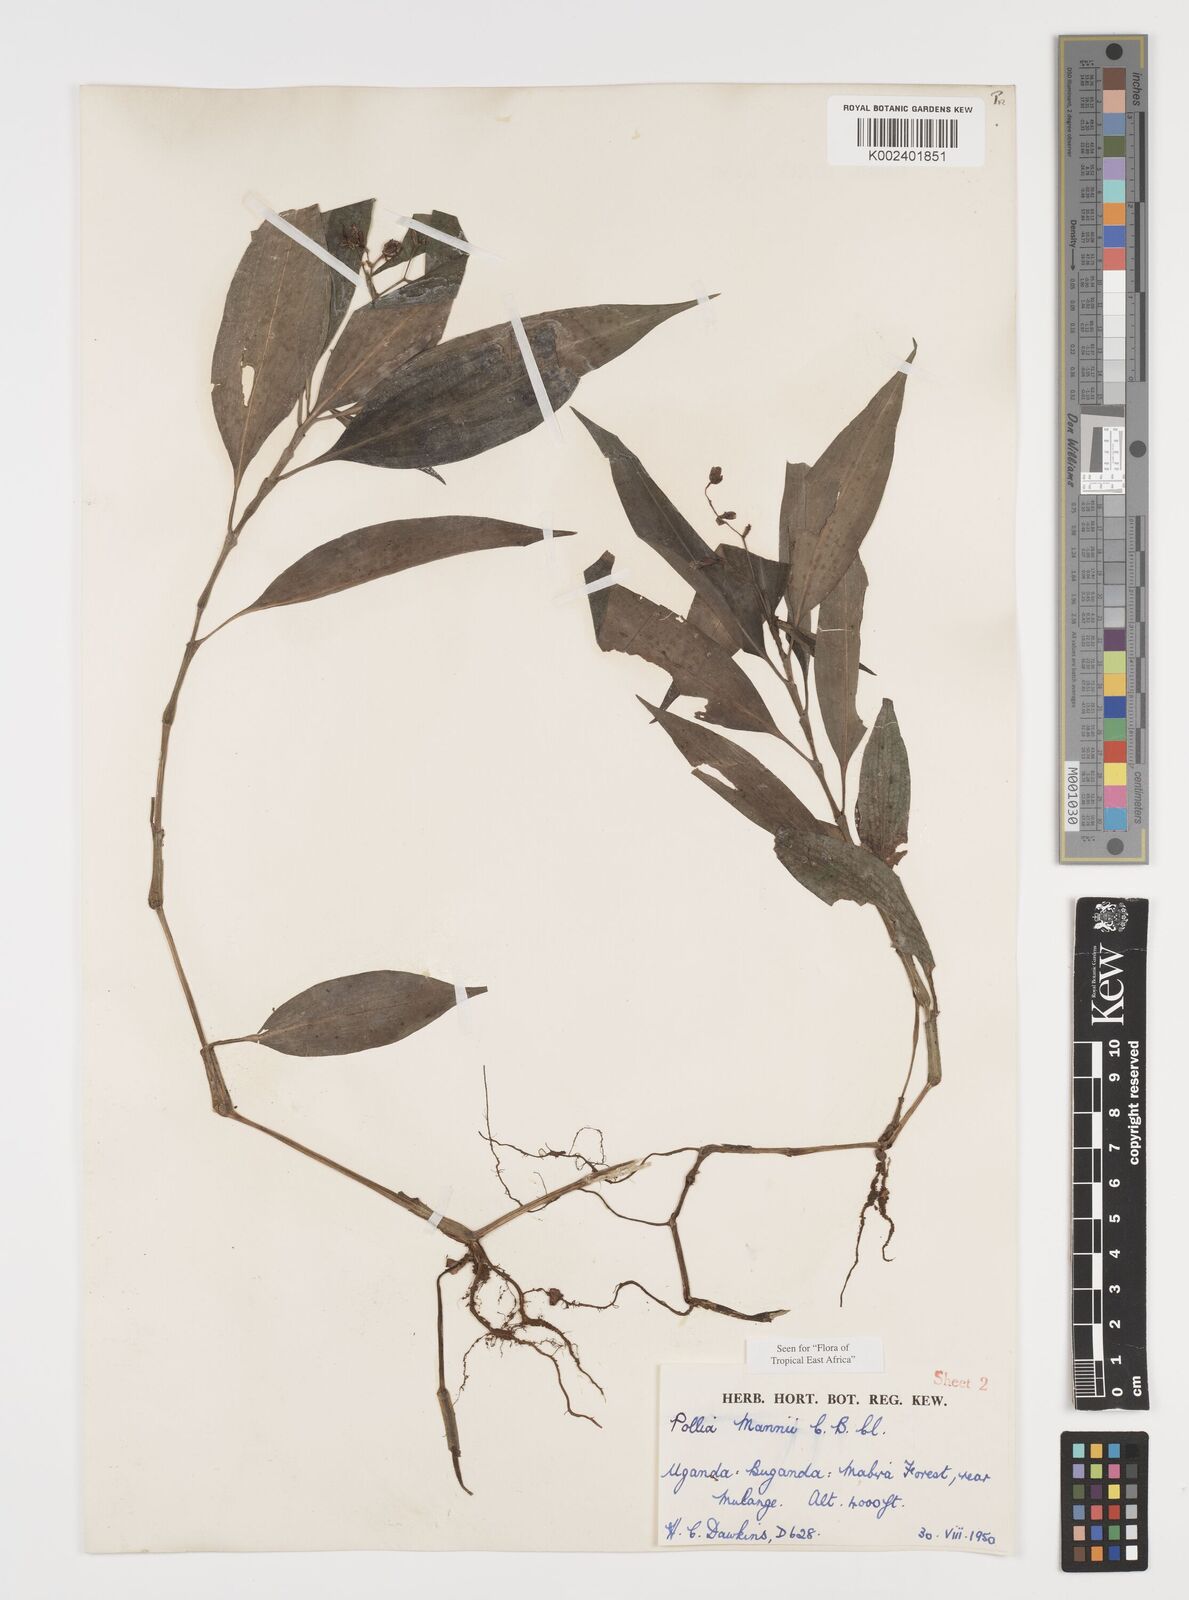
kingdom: Plantae
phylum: Tracheophyta
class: Liliopsida
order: Commelinales
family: Commelinaceae
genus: Pollia
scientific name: Pollia mannii
